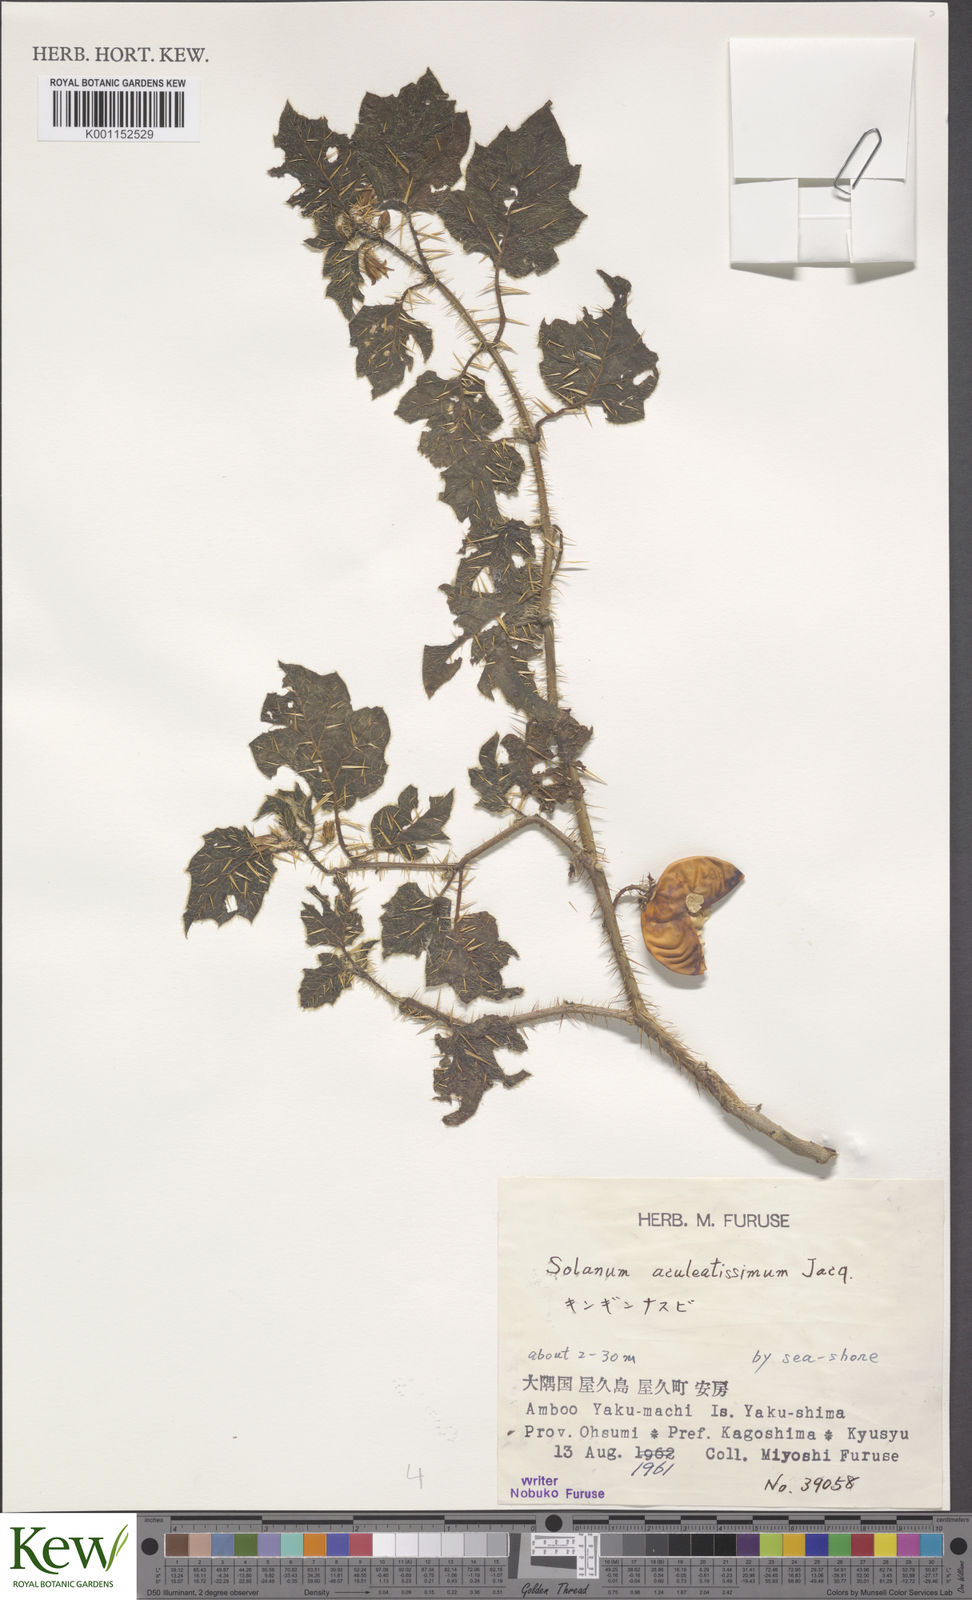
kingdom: Plantae
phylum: Tracheophyta
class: Magnoliopsida
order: Solanales
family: Solanaceae
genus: Solanum
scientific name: Solanum capsicoides
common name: Cockroach berry
